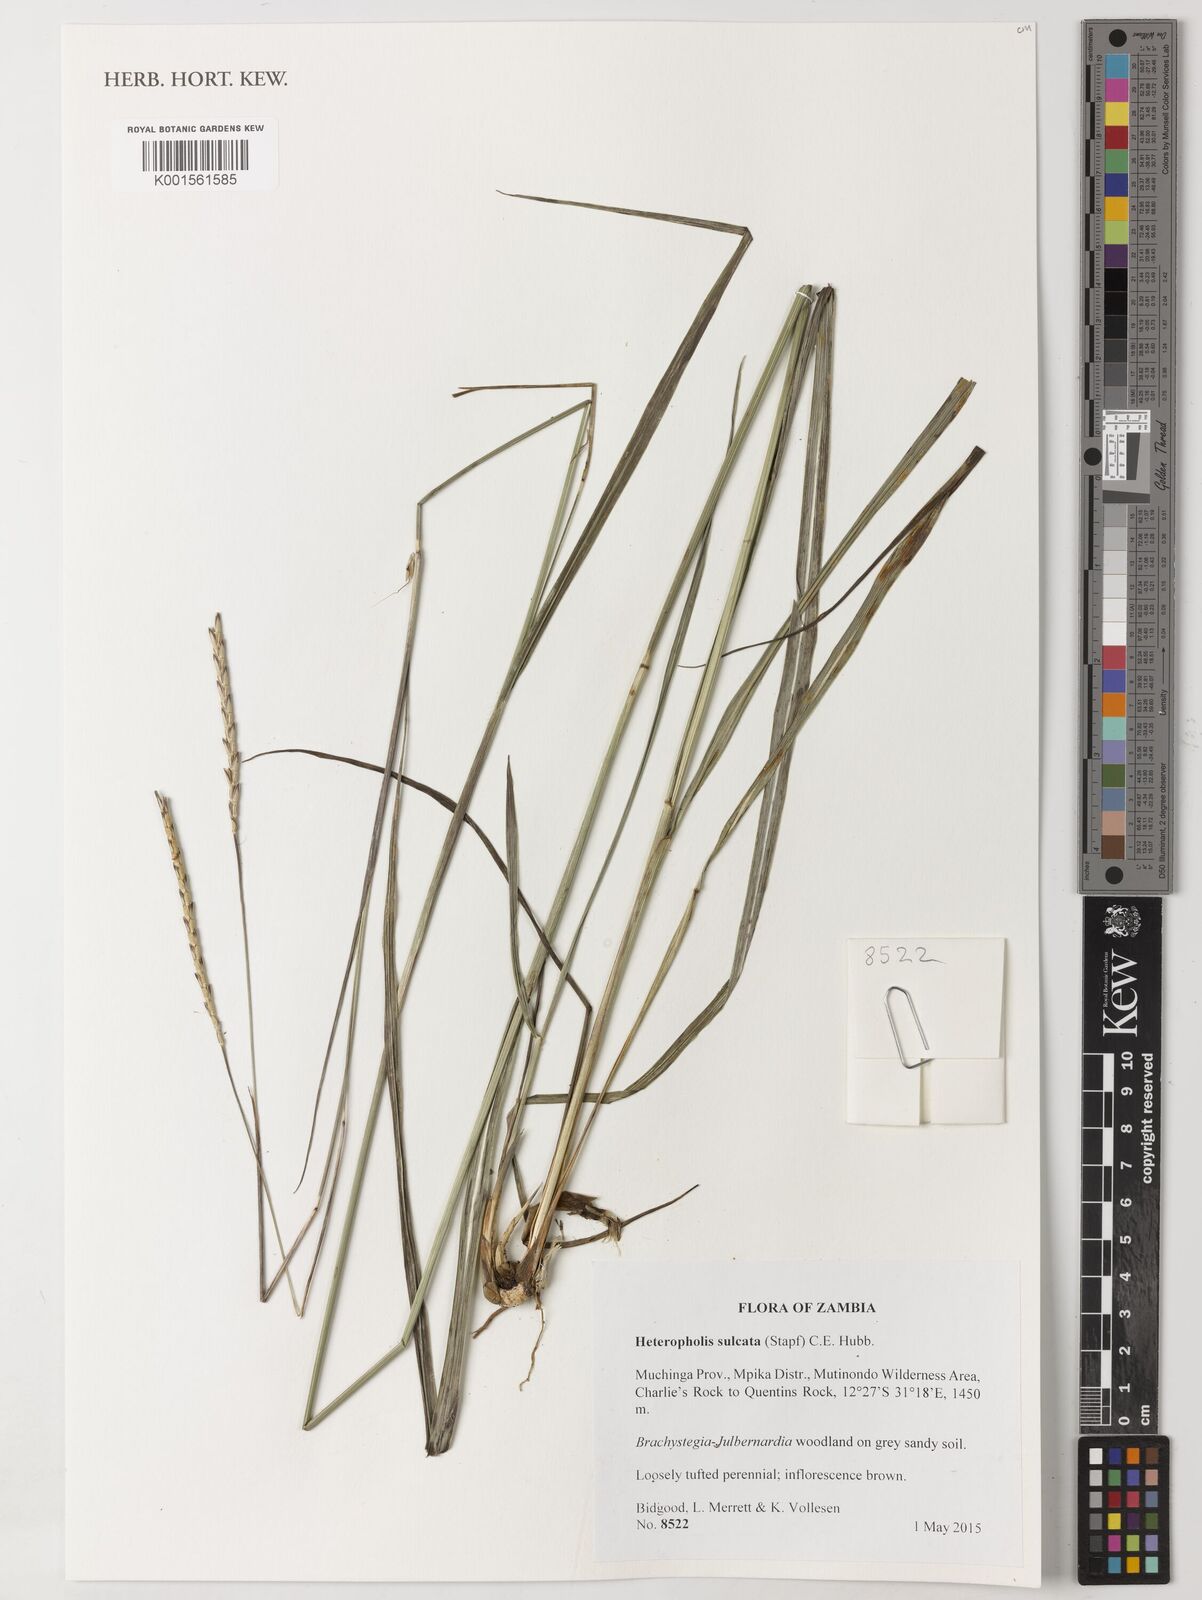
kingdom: Plantae
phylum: Tracheophyta
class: Liliopsida
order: Poales
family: Poaceae
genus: Heteropholis
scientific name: Heteropholis sulcata
